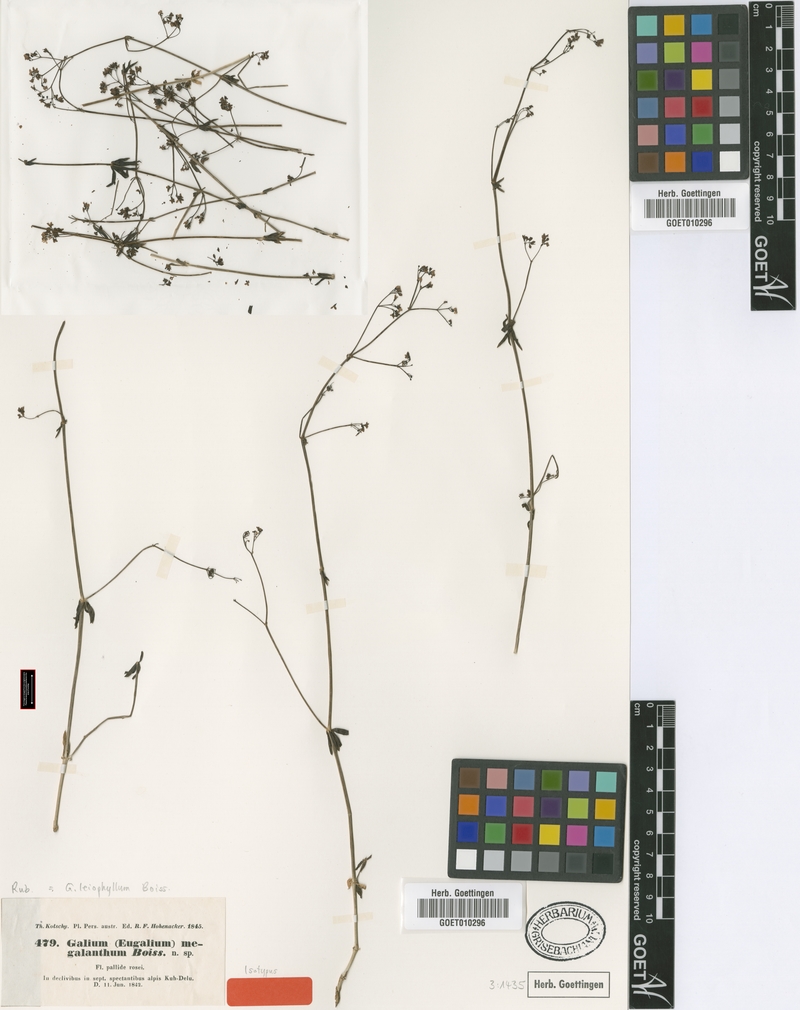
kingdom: Plantae
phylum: Tracheophyta
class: Magnoliopsida
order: Gentianales
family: Rubiaceae
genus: Galium
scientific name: Galium subvelutinum
